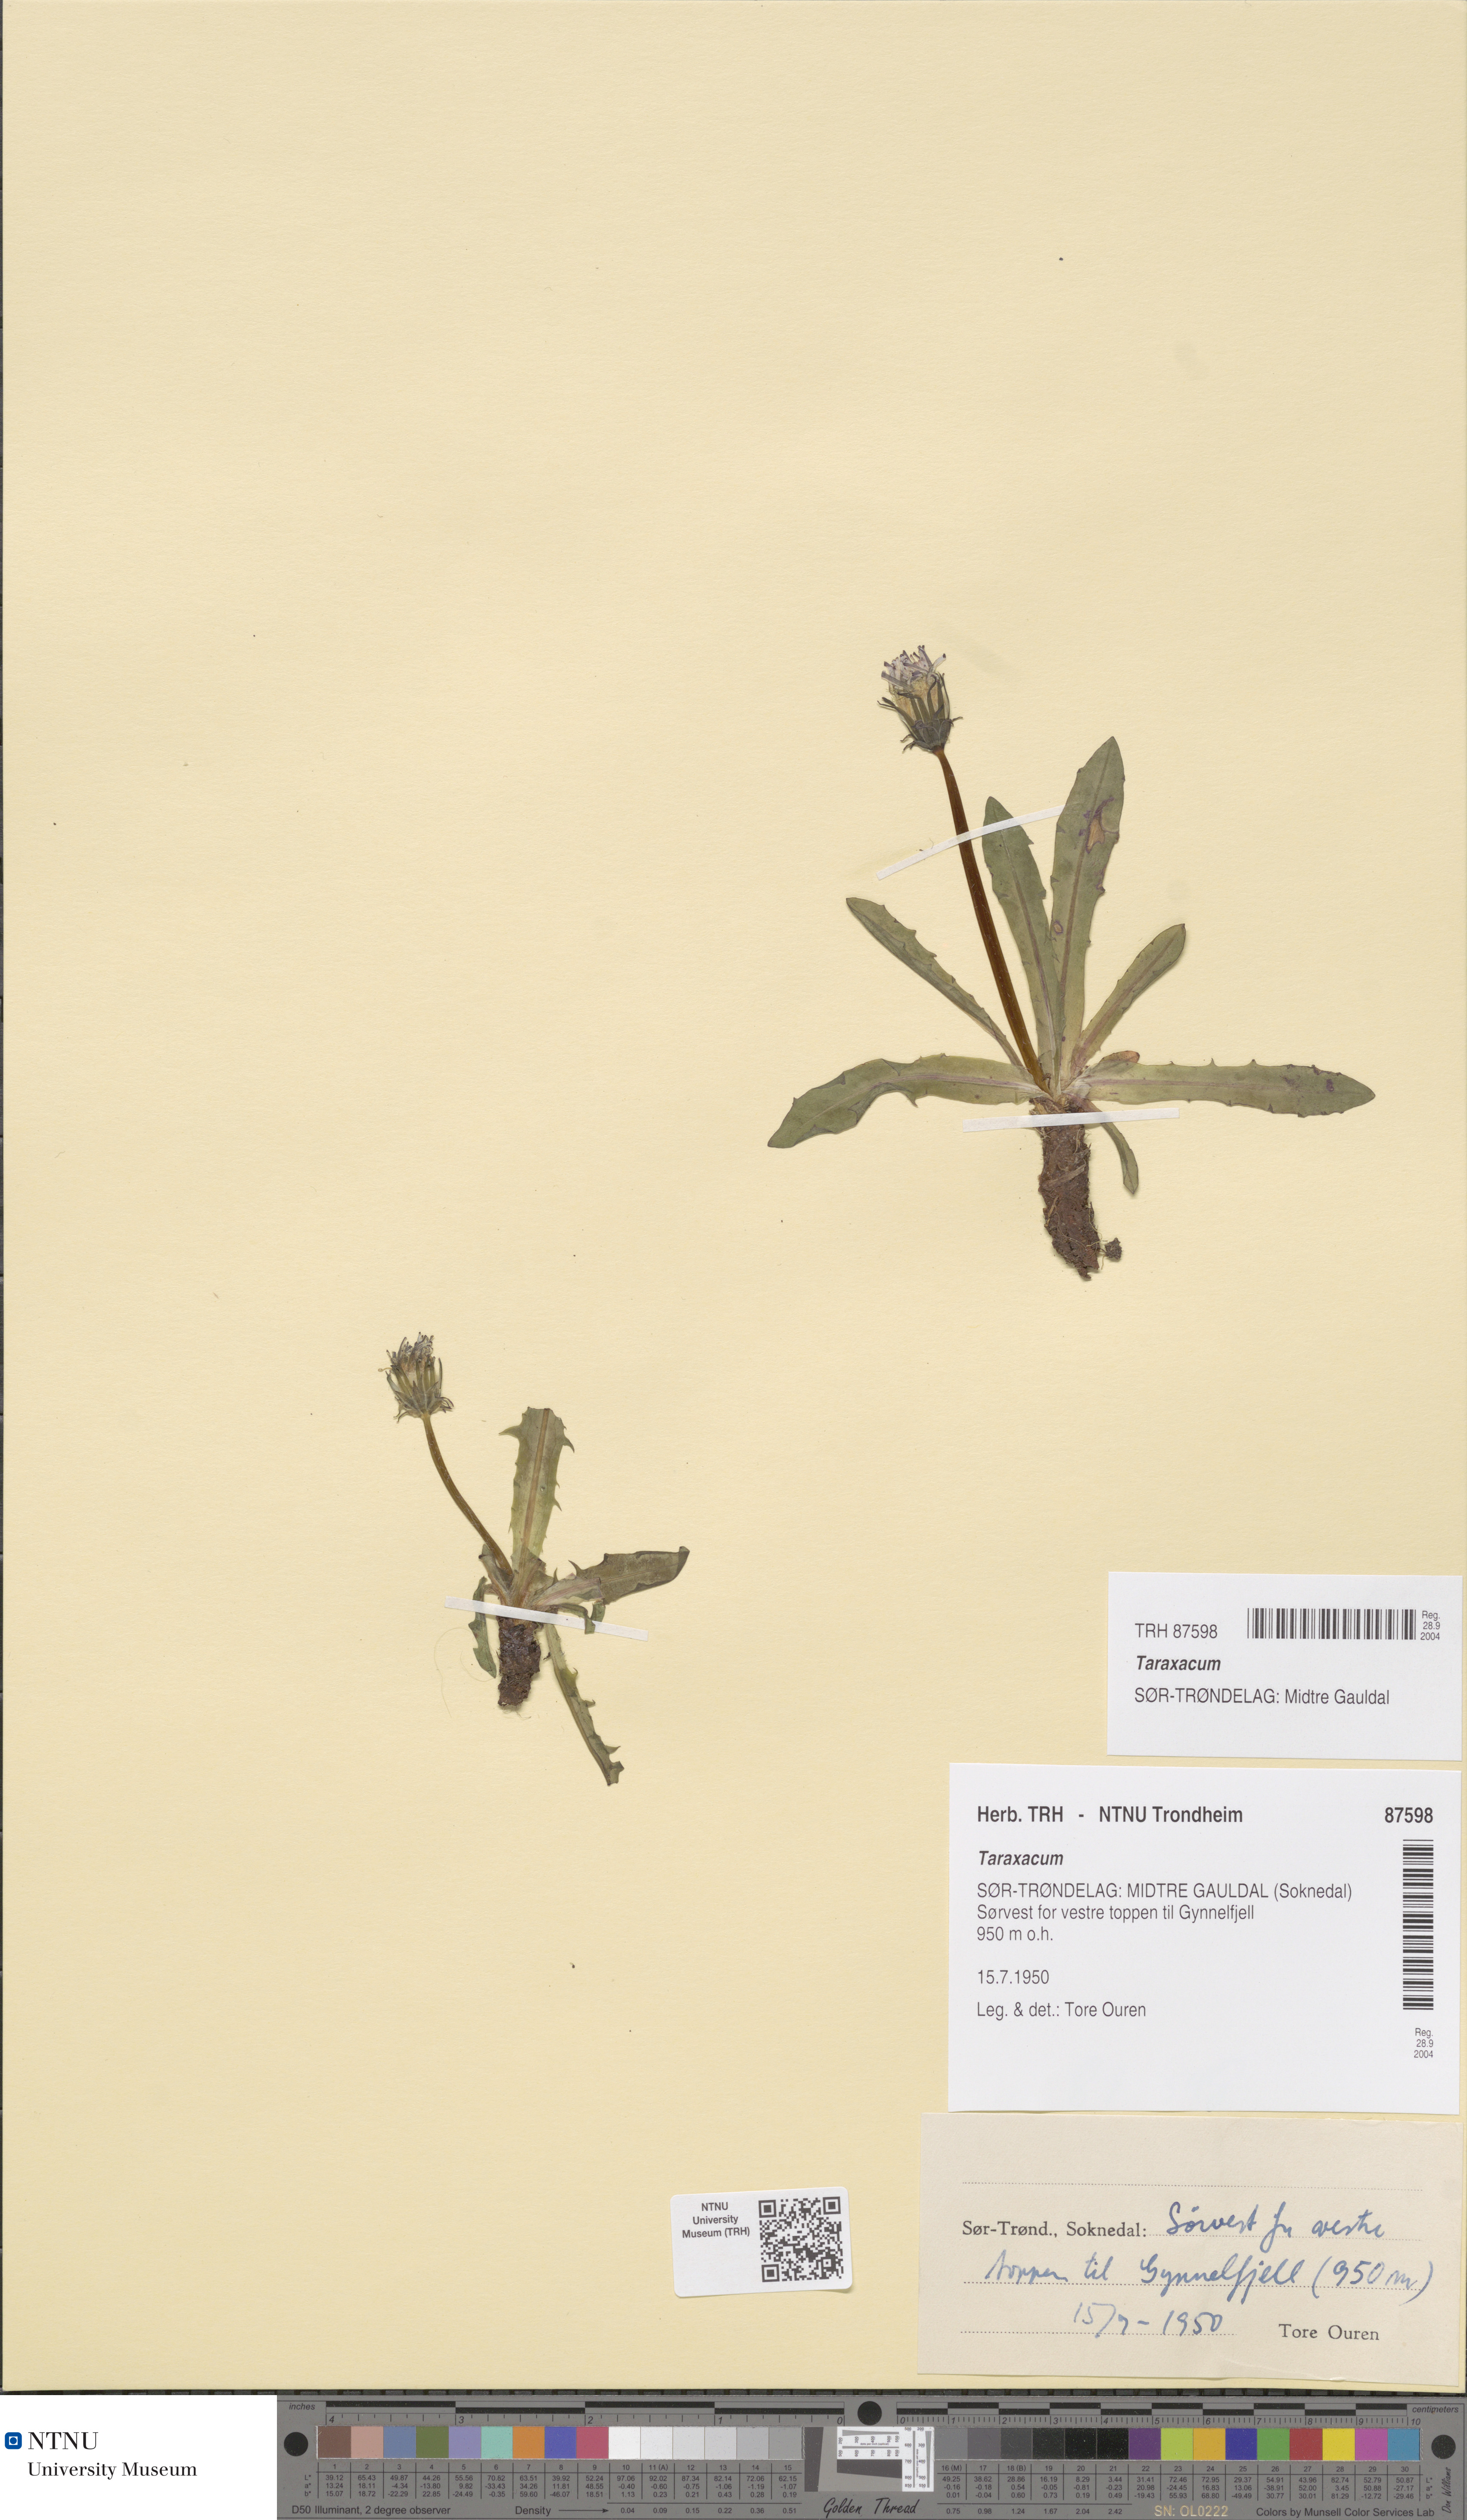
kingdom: Plantae
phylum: Tracheophyta
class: Magnoliopsida
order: Asterales
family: Asteraceae
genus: Taraxacum
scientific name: Taraxacum
